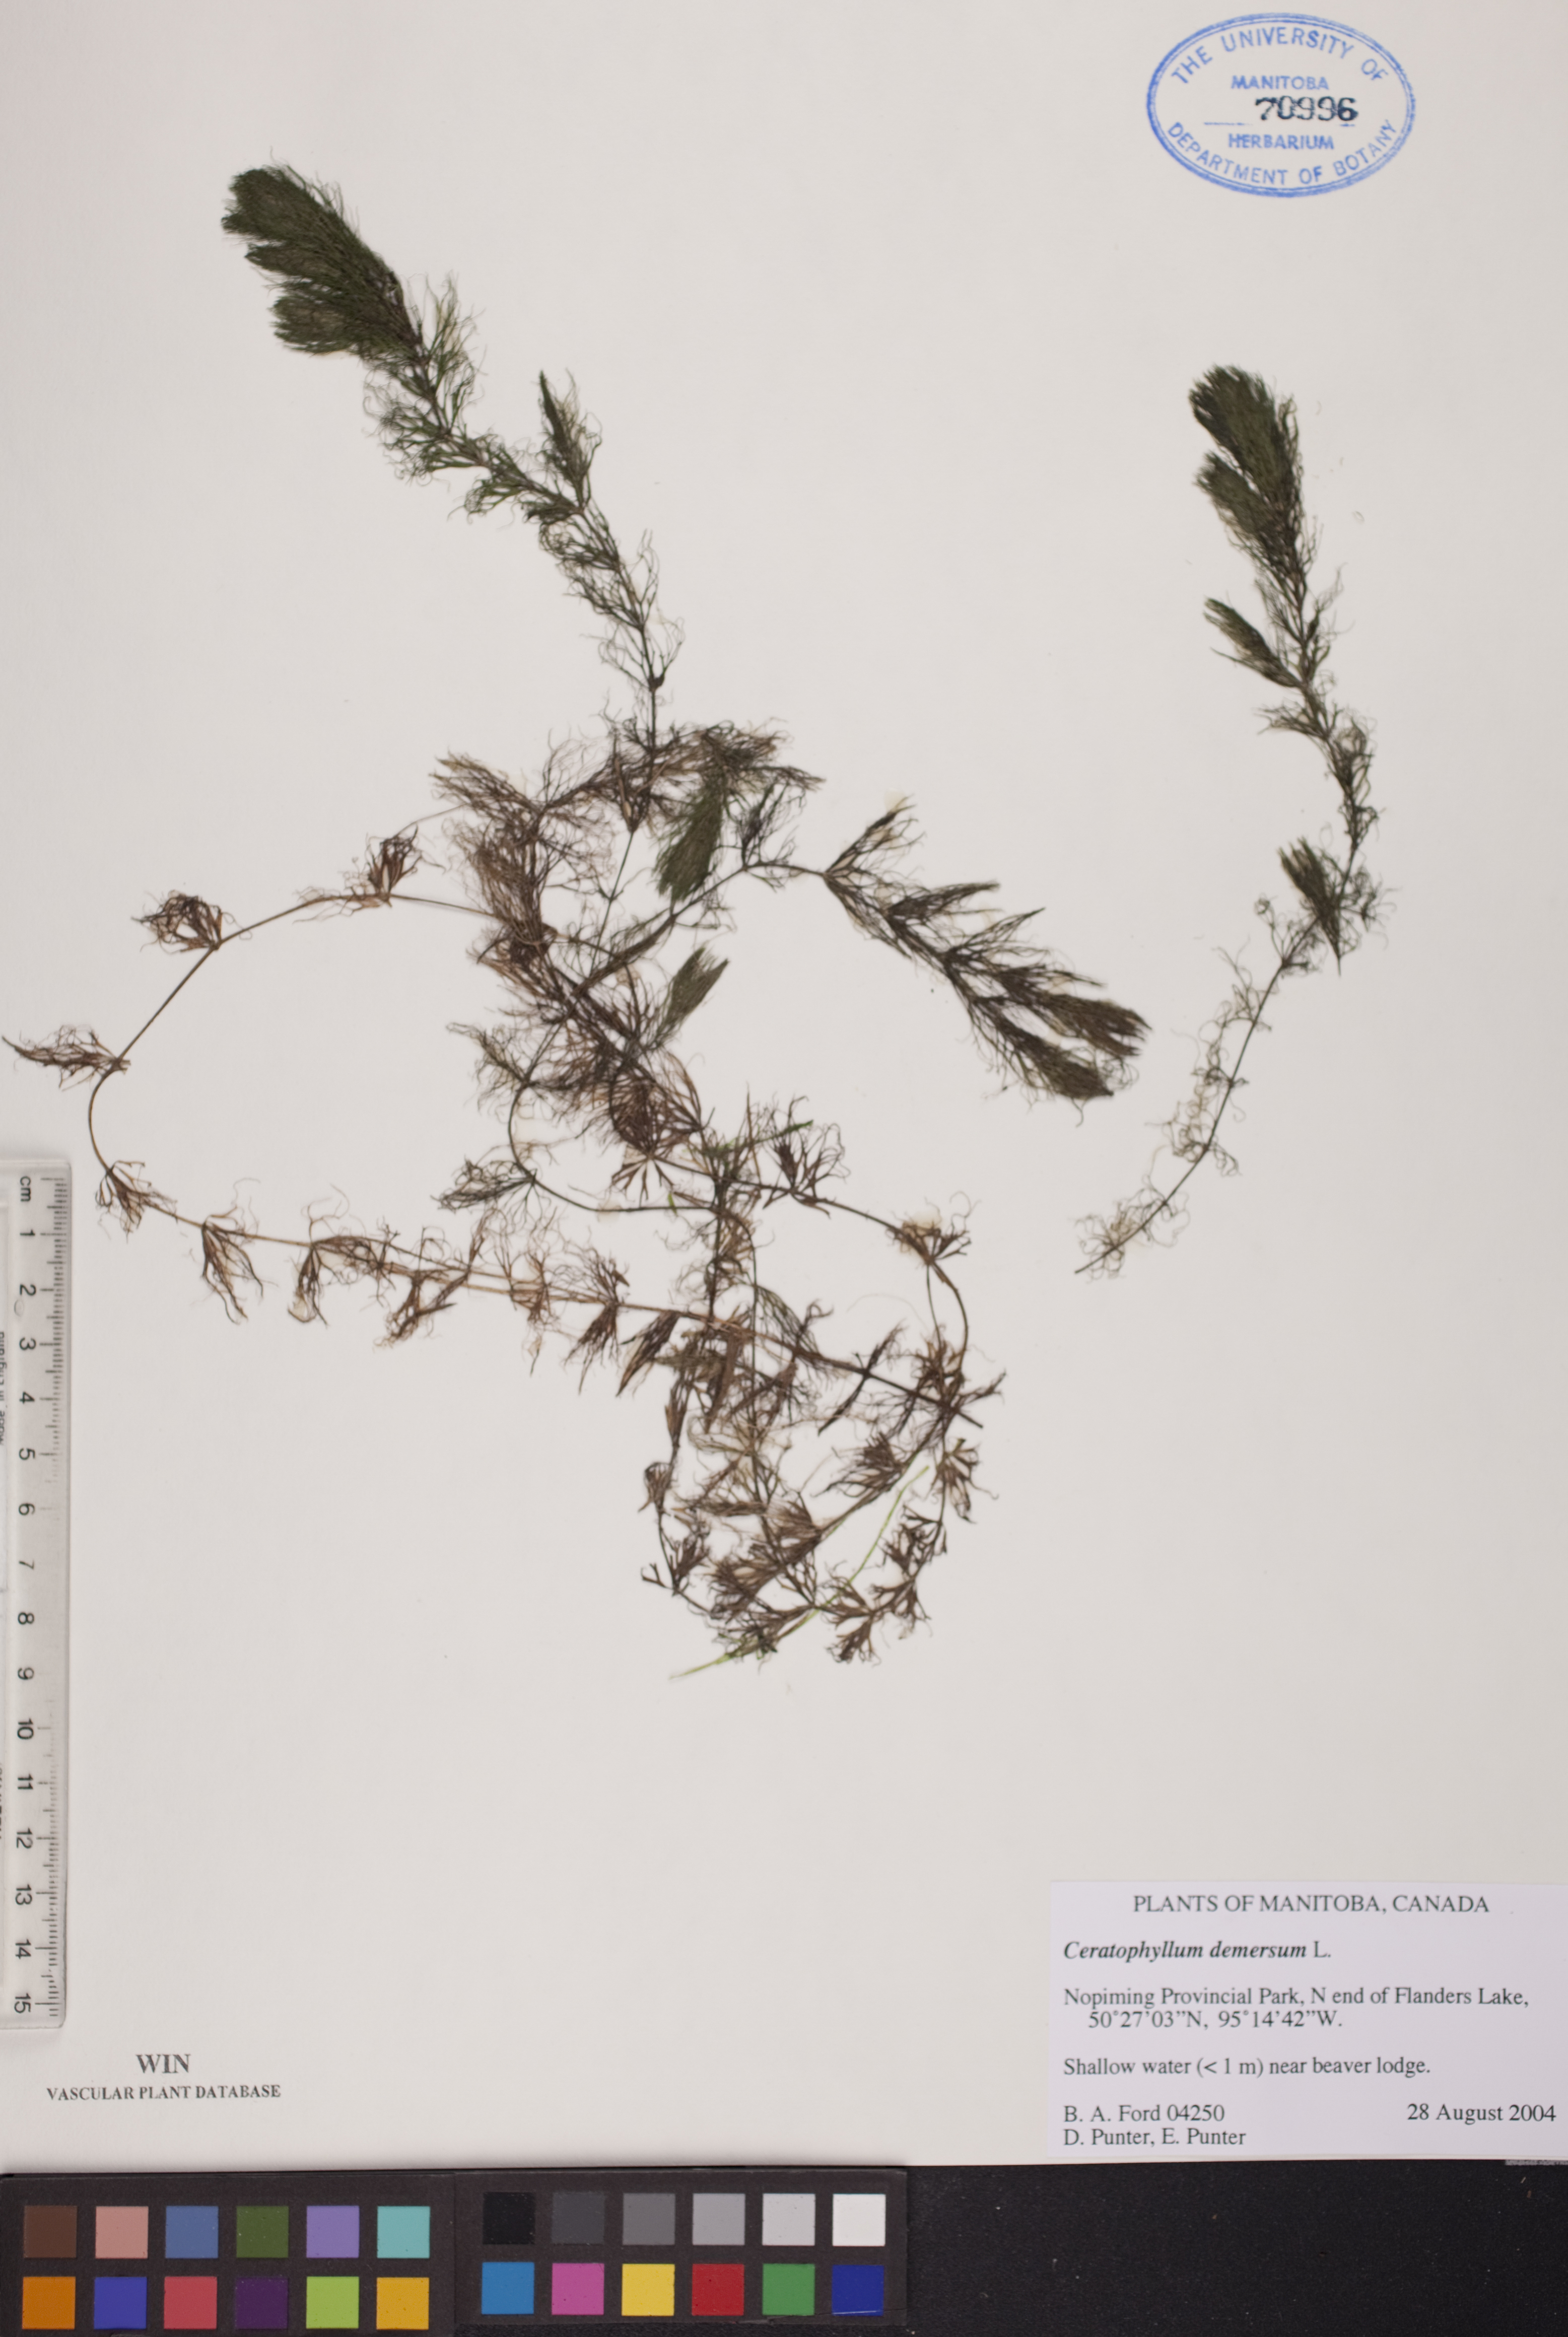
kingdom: Plantae
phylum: Tracheophyta
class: Magnoliopsida
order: Ceratophyllales
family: Ceratophyllaceae
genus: Ceratophyllum
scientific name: Ceratophyllum demersum
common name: Rigid hornwort
